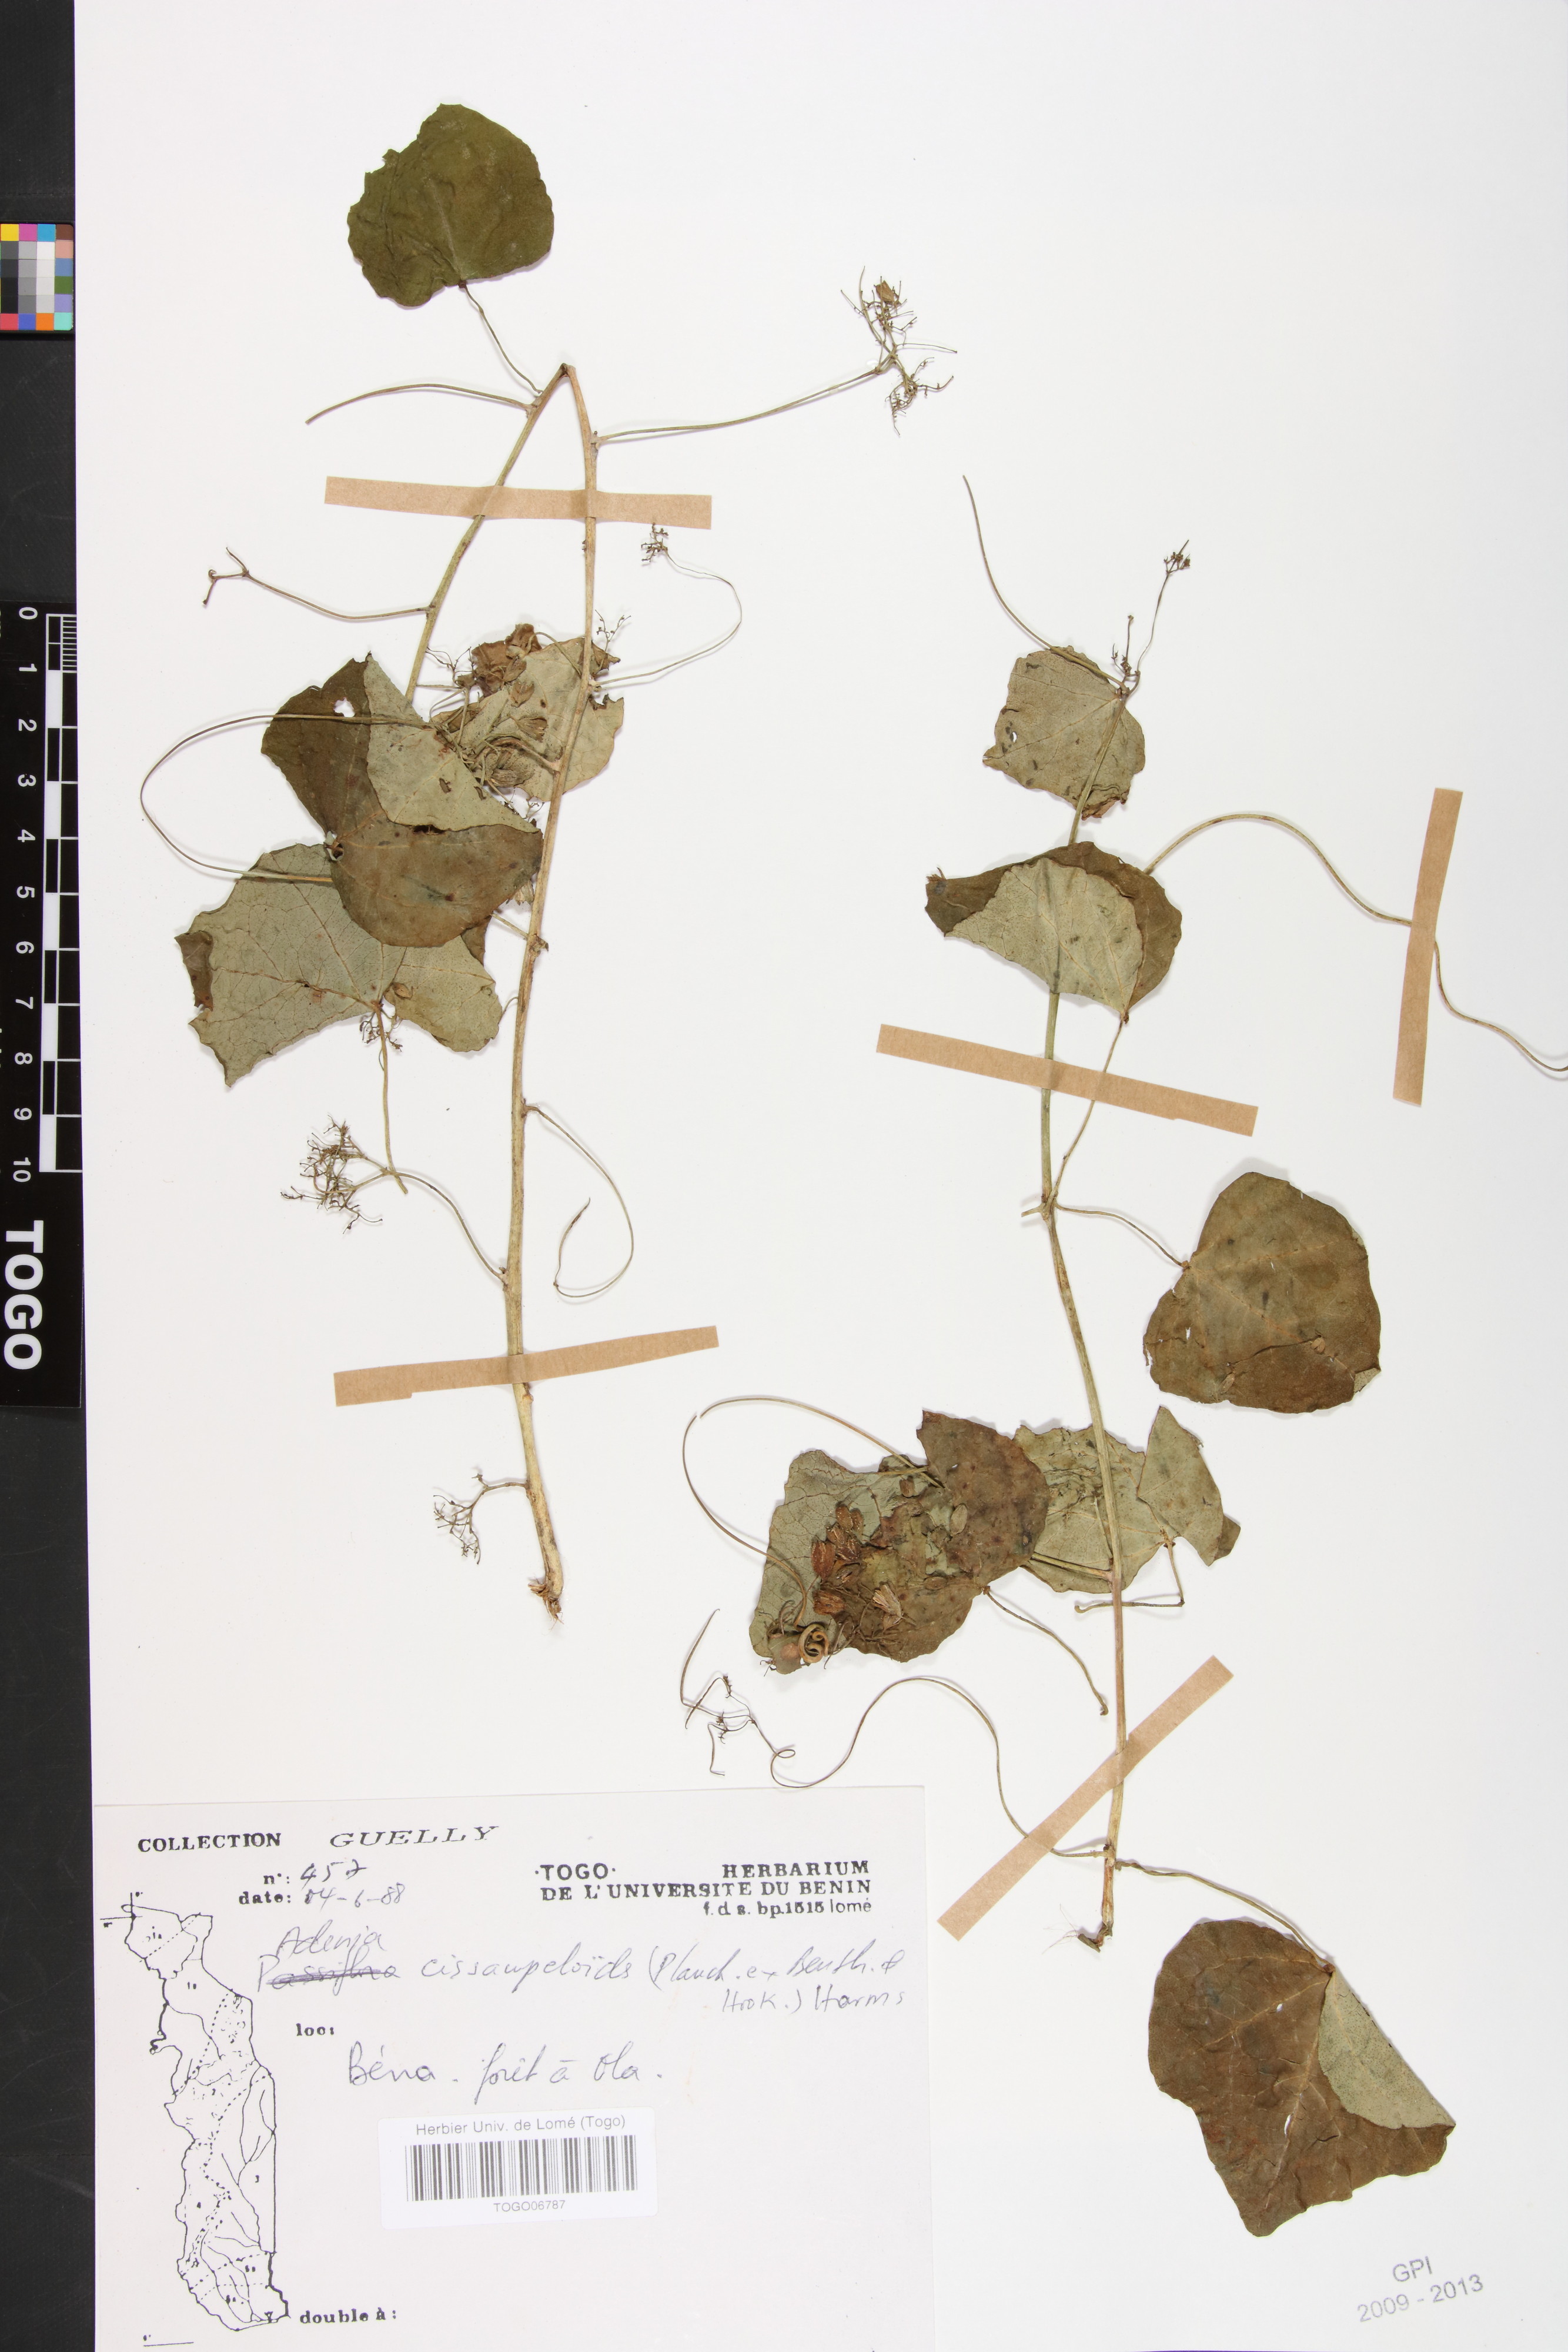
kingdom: Plantae
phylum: Tracheophyta
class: Magnoliopsida
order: Malpighiales
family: Passifloraceae
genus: Adenia
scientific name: Adenia cissampeloides
